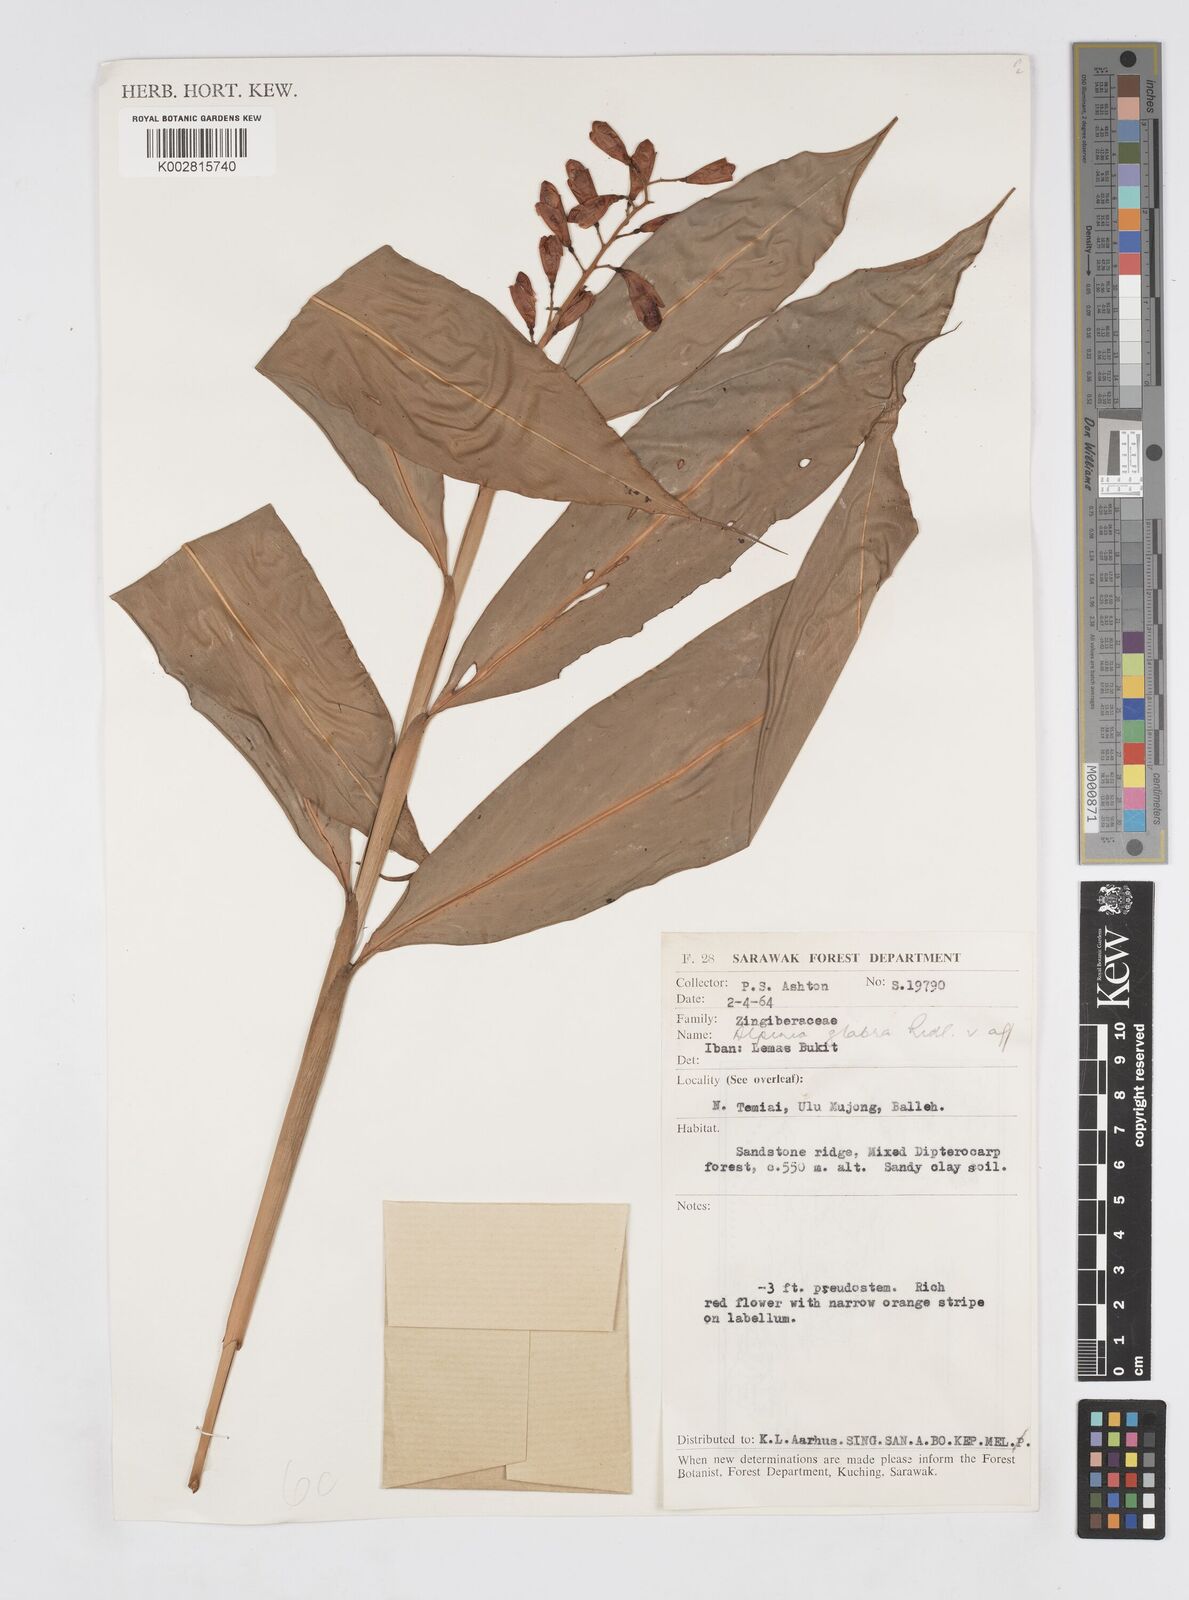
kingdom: Plantae
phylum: Tracheophyta
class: Liliopsida
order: Zingiberales
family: Zingiberaceae
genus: Alpinia
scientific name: Alpinia glabra
